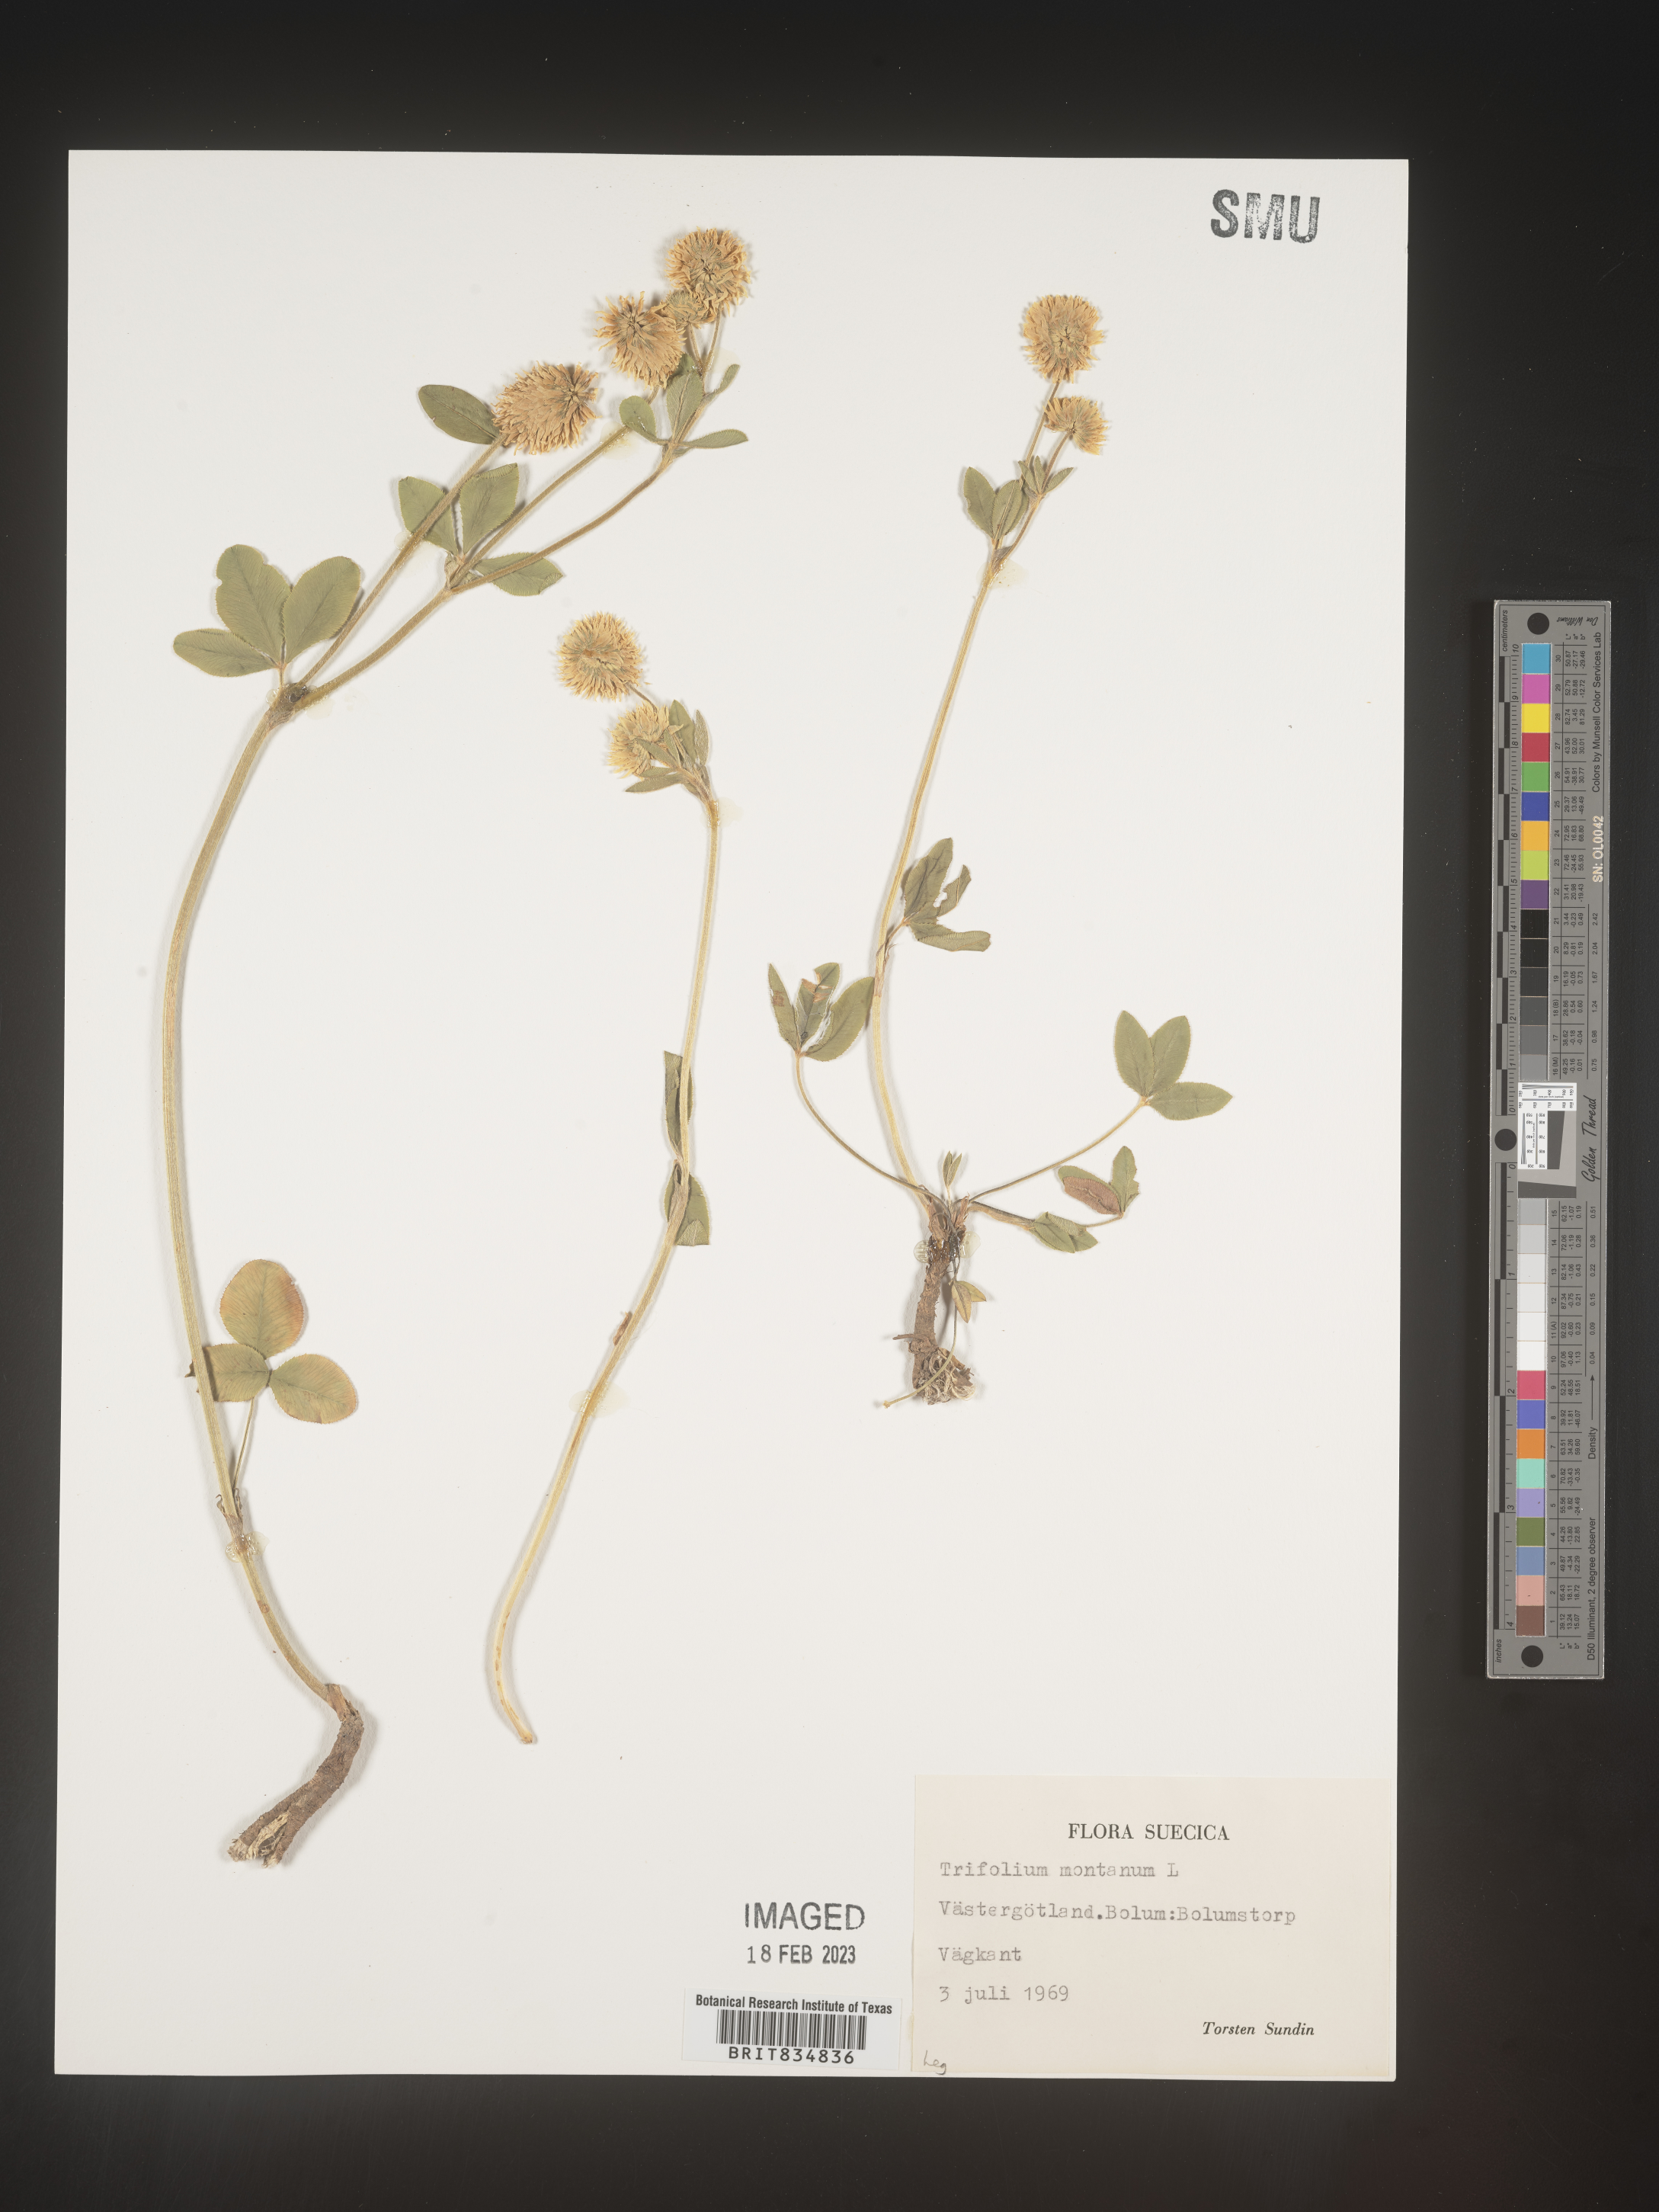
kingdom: Plantae
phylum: Tracheophyta
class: Magnoliopsida
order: Fabales
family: Fabaceae
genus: Trifolium
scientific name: Trifolium
